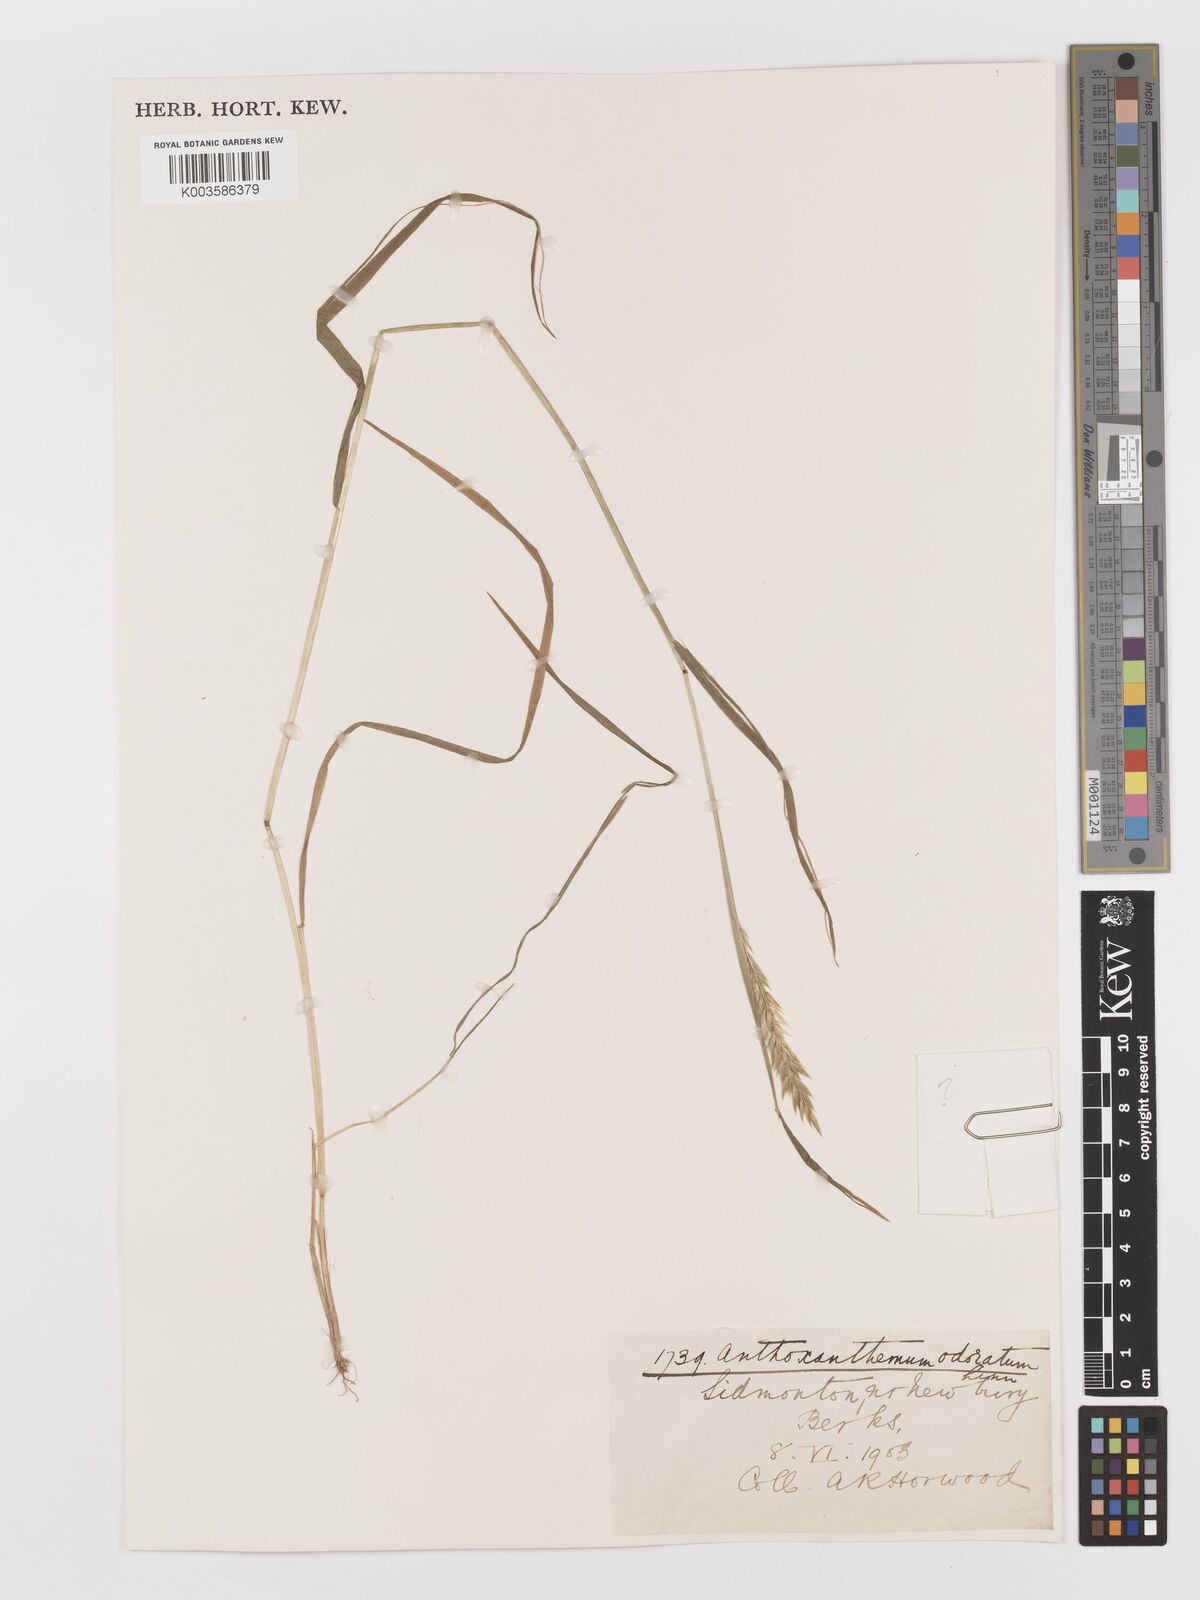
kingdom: Plantae
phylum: Tracheophyta
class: Liliopsida
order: Poales
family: Poaceae
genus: Anthoxanthum
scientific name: Anthoxanthum odoratum
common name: Sweet vernalgrass
